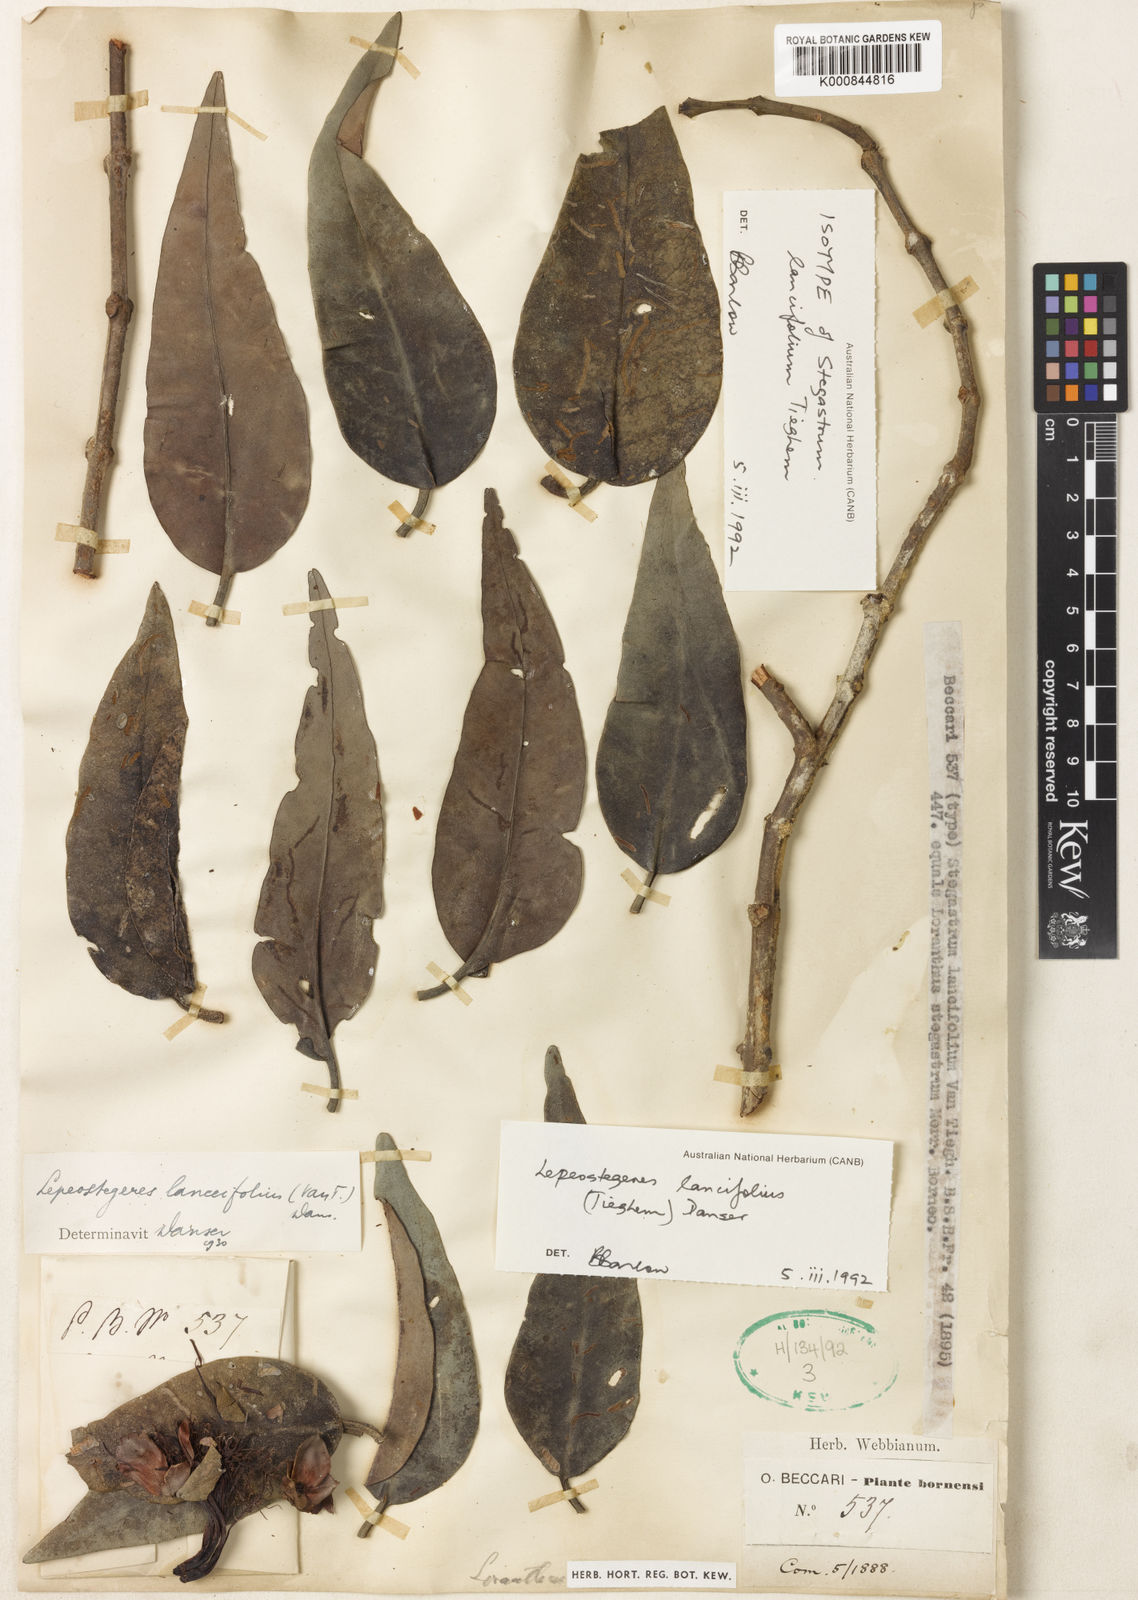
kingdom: Plantae
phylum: Tracheophyta
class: Magnoliopsida
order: Santalales
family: Loranthaceae
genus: Lepeostegeres
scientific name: Lepeostegeres
